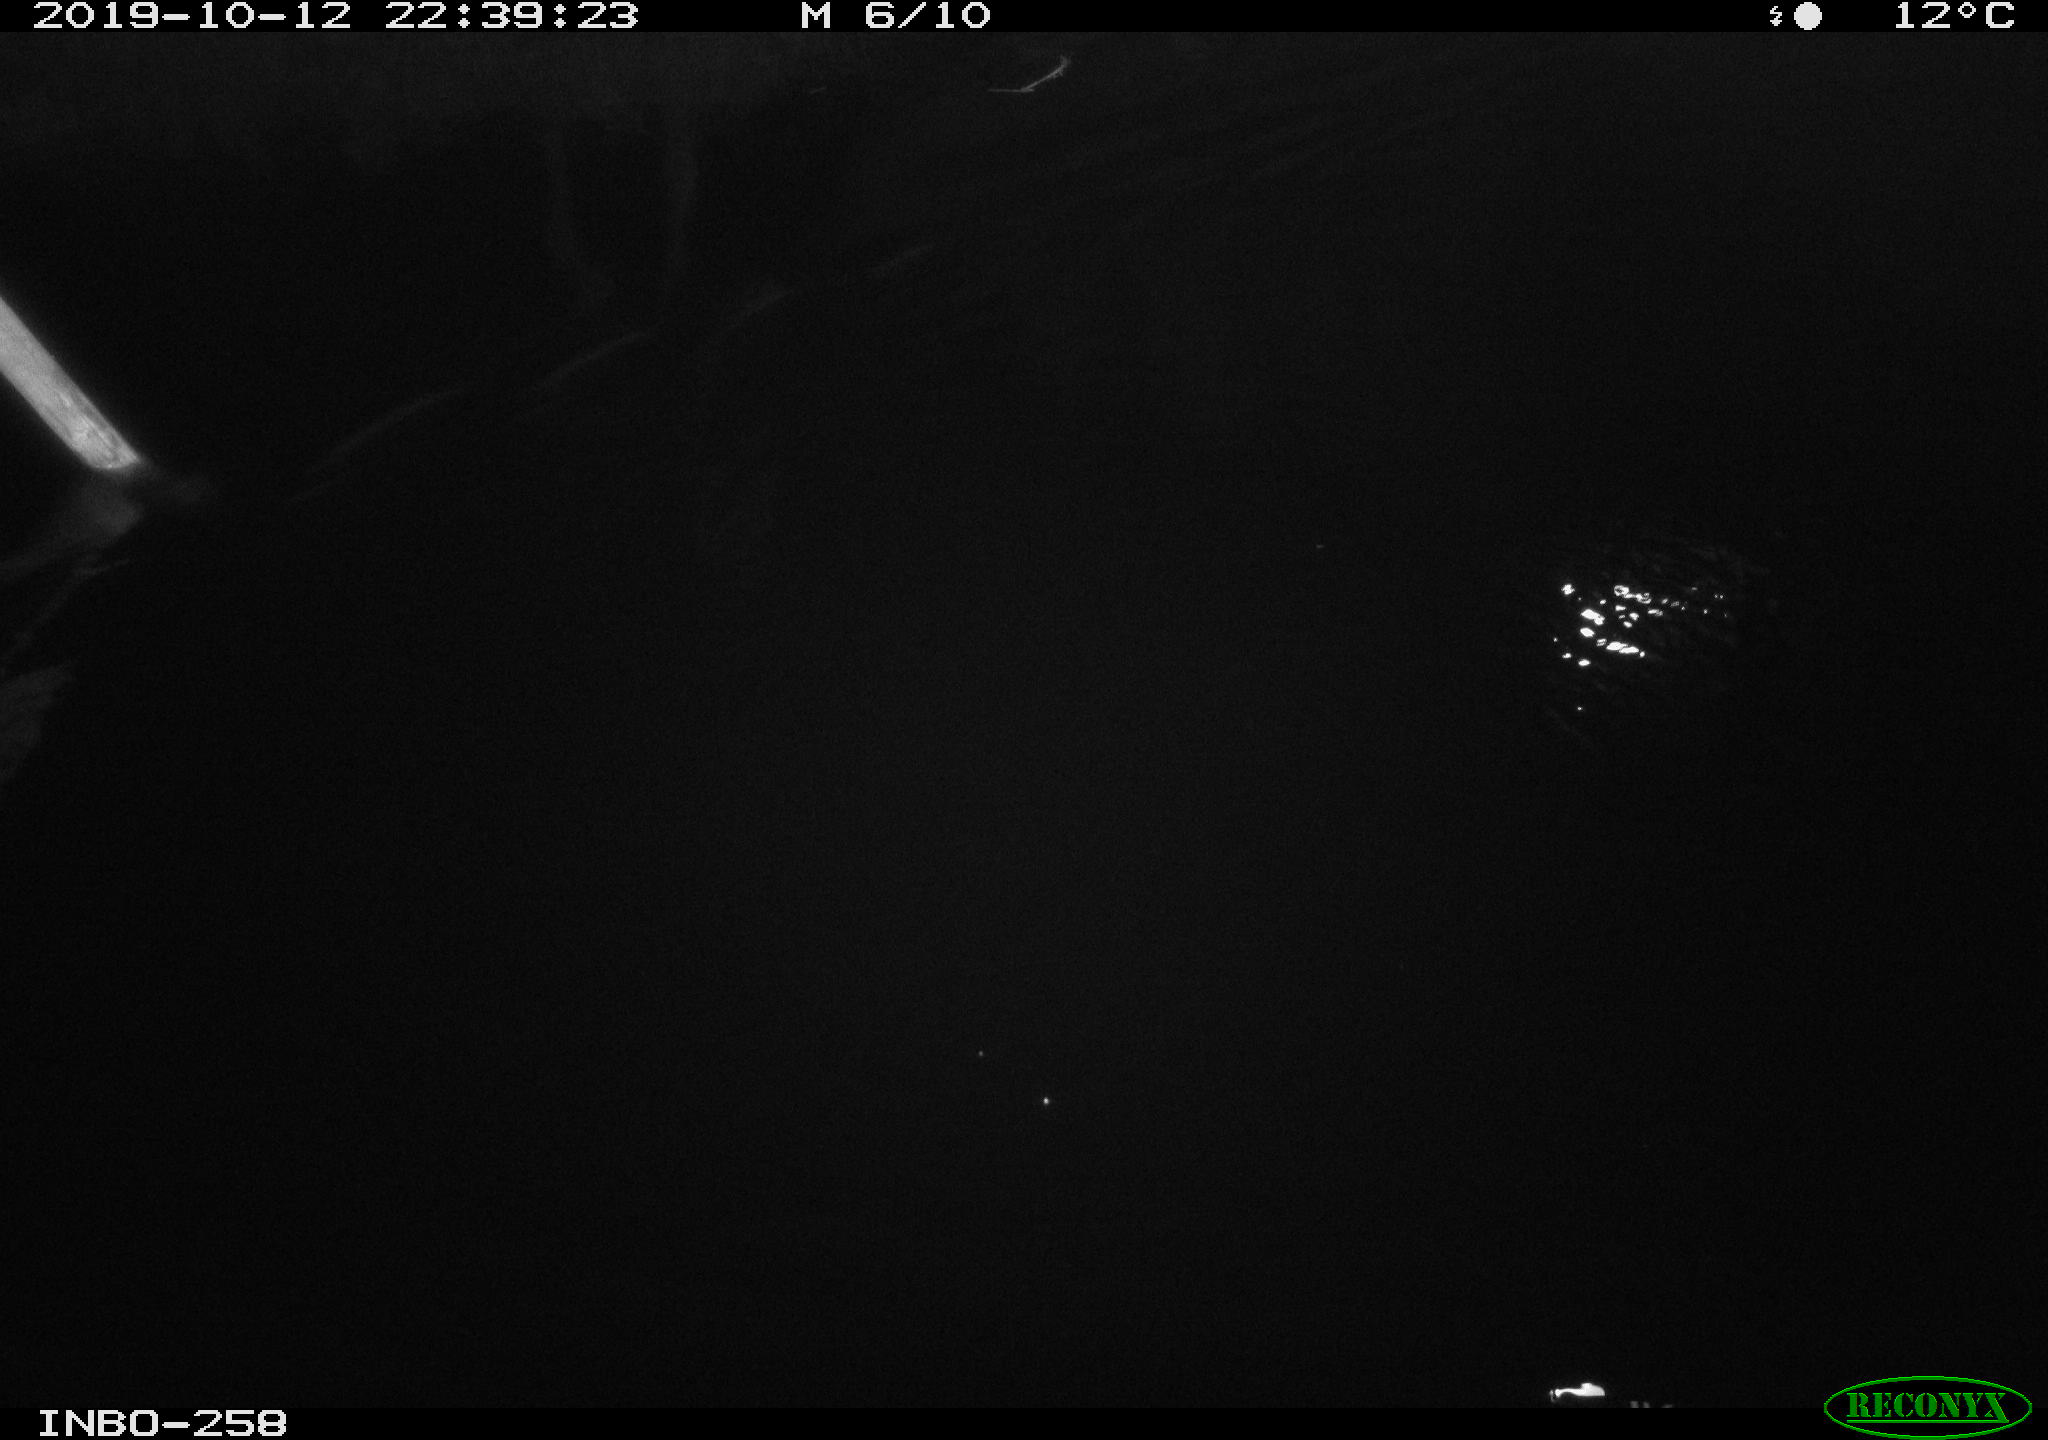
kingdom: Animalia
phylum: Chordata
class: Aves
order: Anseriformes
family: Anatidae
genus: Anas
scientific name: Anas platyrhynchos
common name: Mallard
